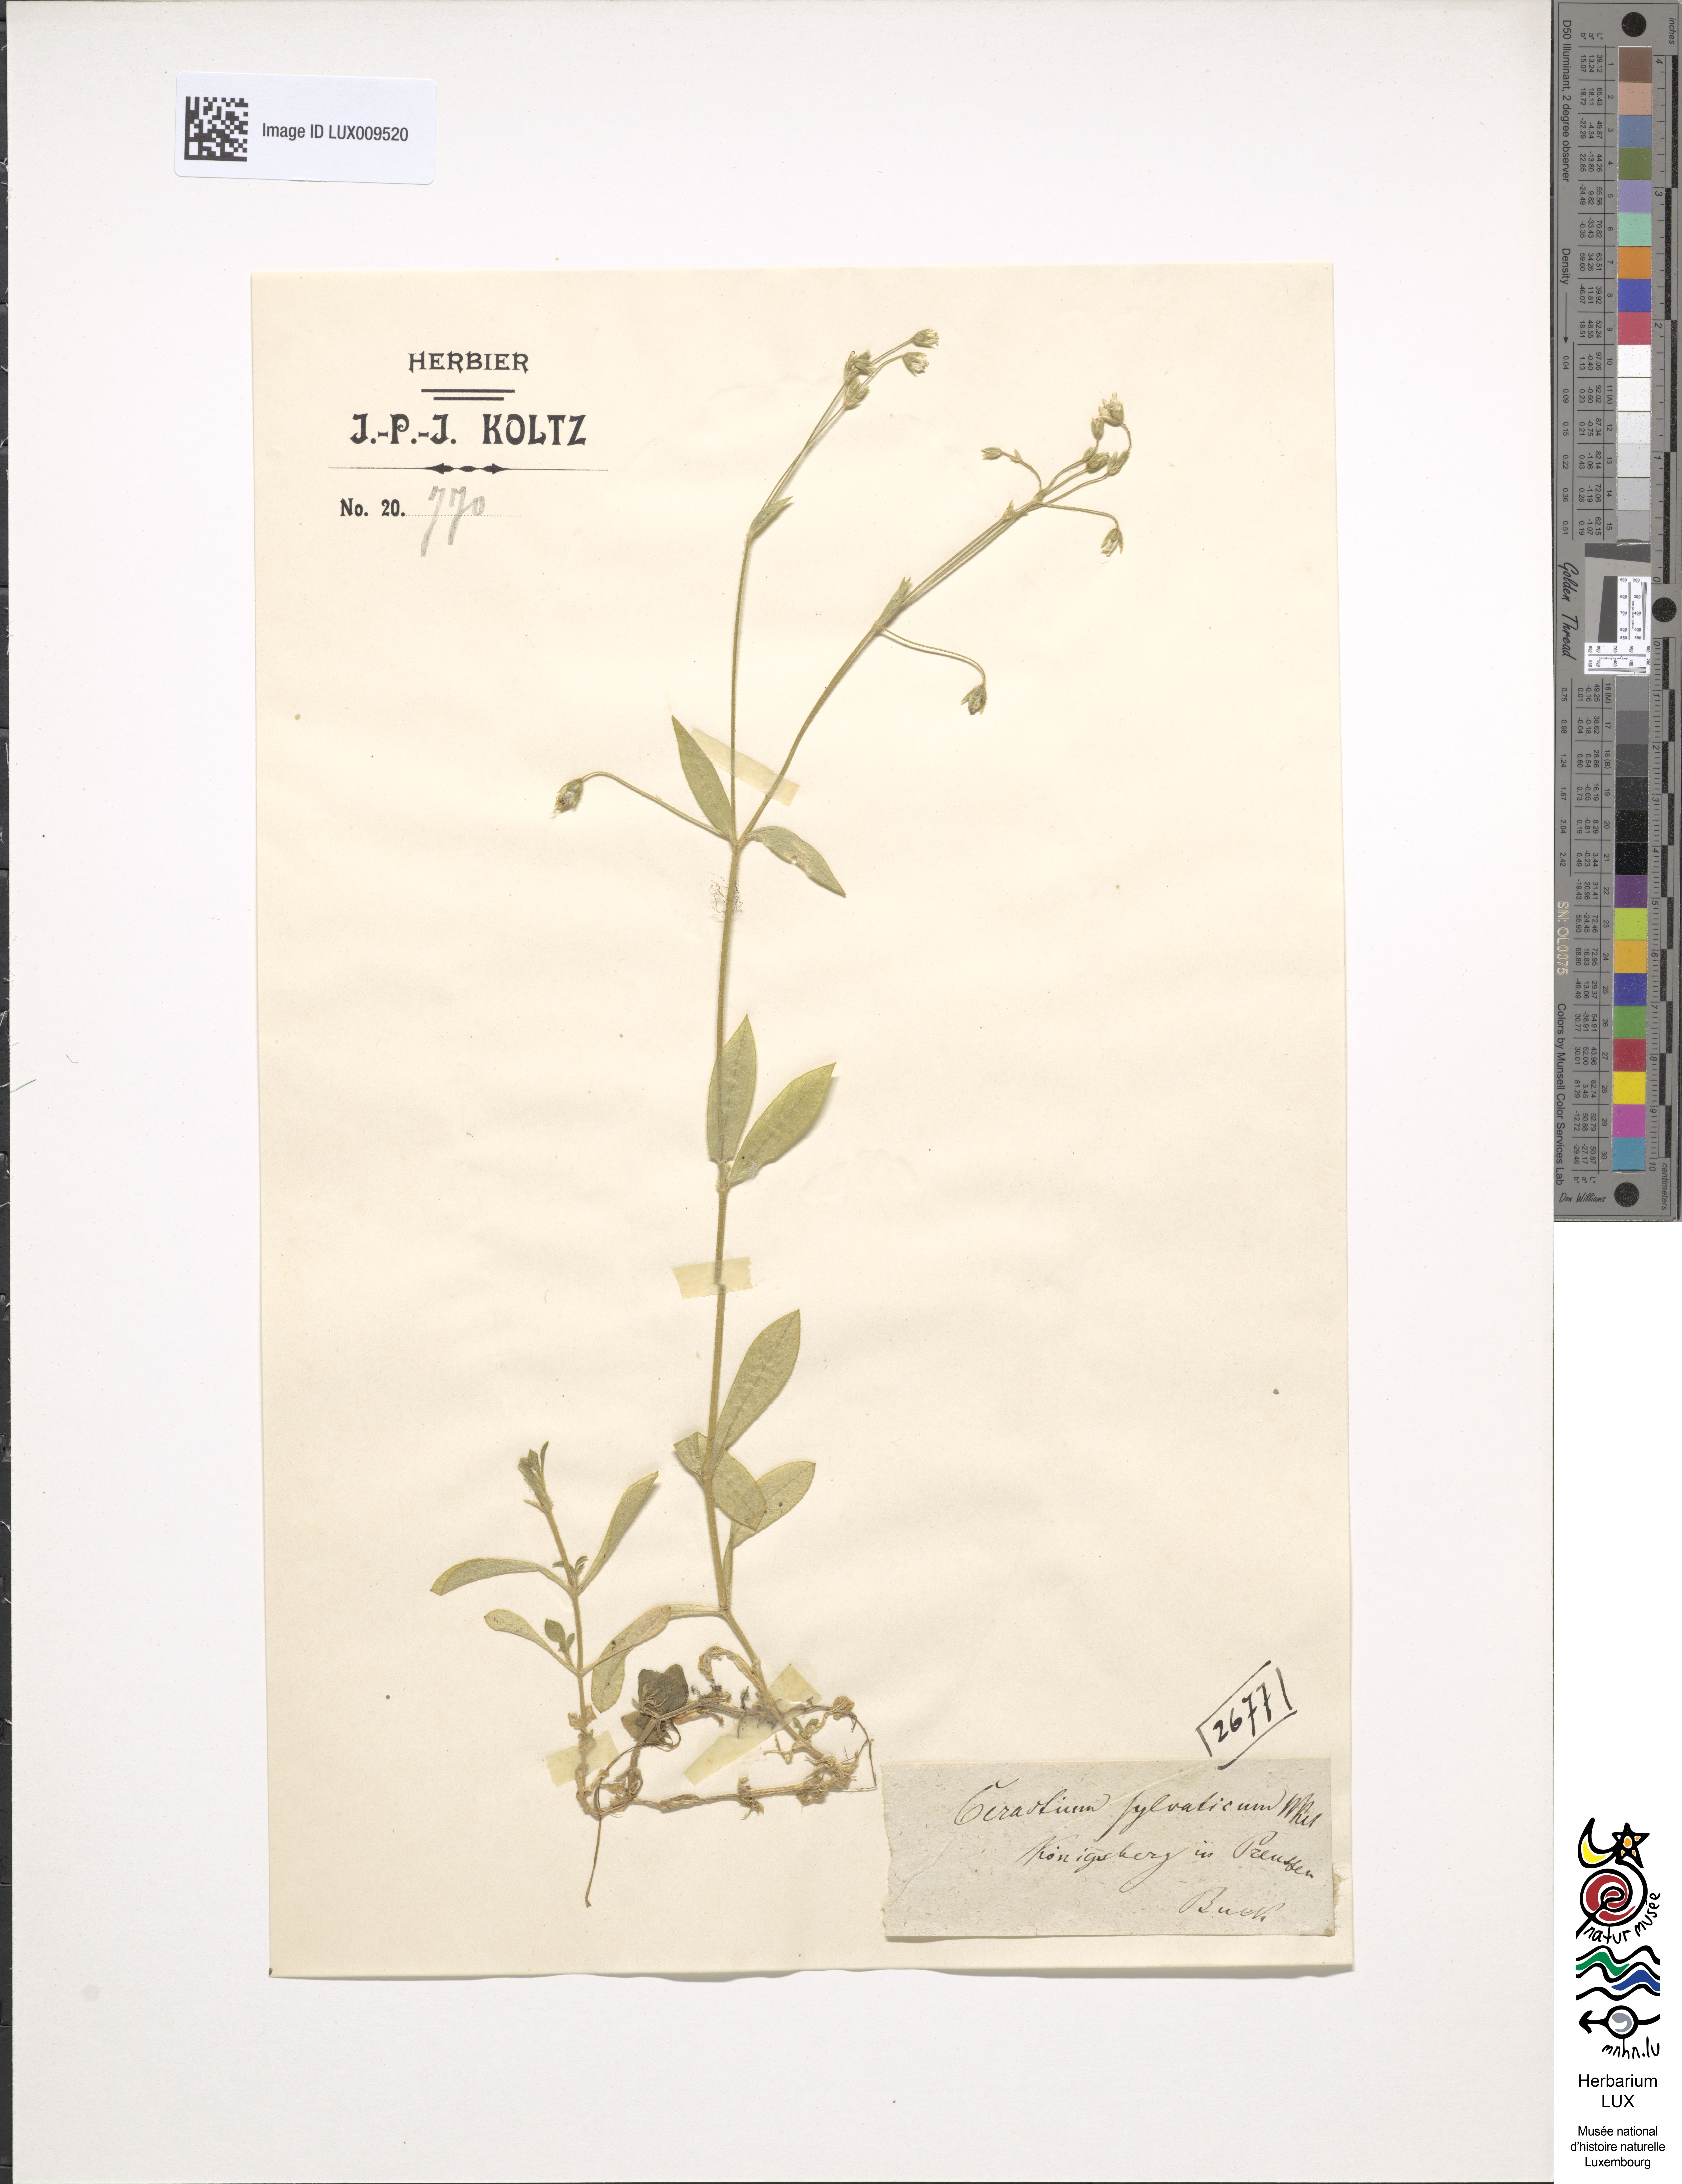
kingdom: Plantae
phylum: Tracheophyta
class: Magnoliopsida
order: Caryophyllales
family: Caryophyllaceae
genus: Cerastium
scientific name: Cerastium sylvaticum
